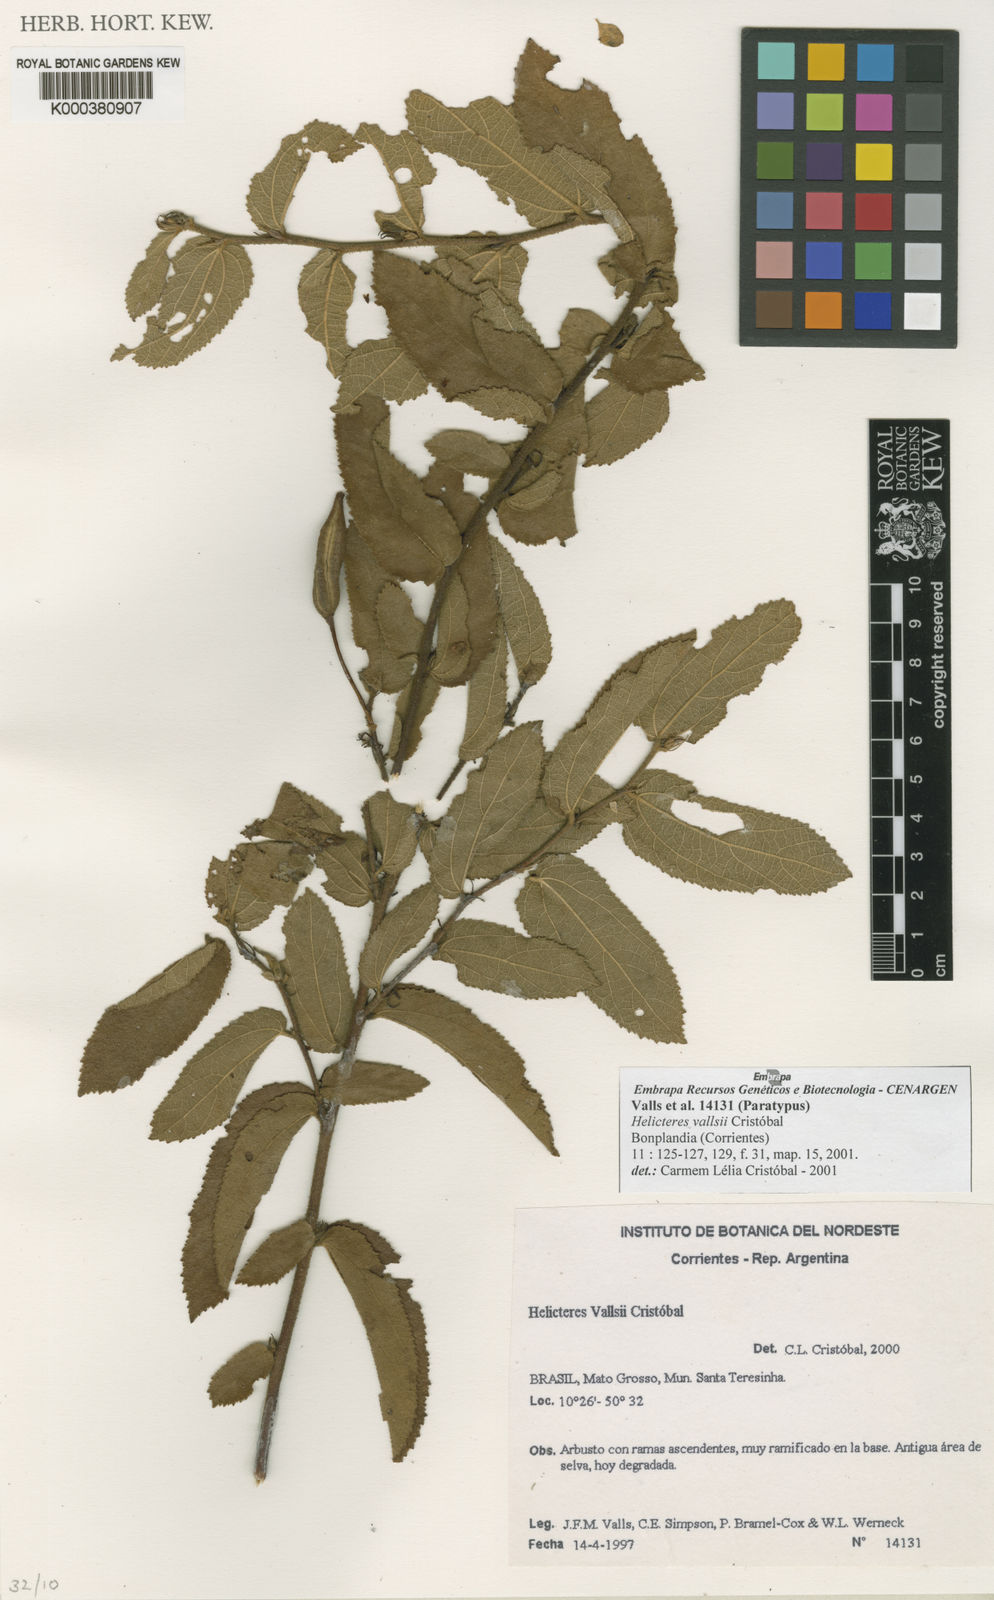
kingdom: Plantae
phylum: Tracheophyta
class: Magnoliopsida
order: Malvales
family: Malvaceae
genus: Helicteres
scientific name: Helicteres
